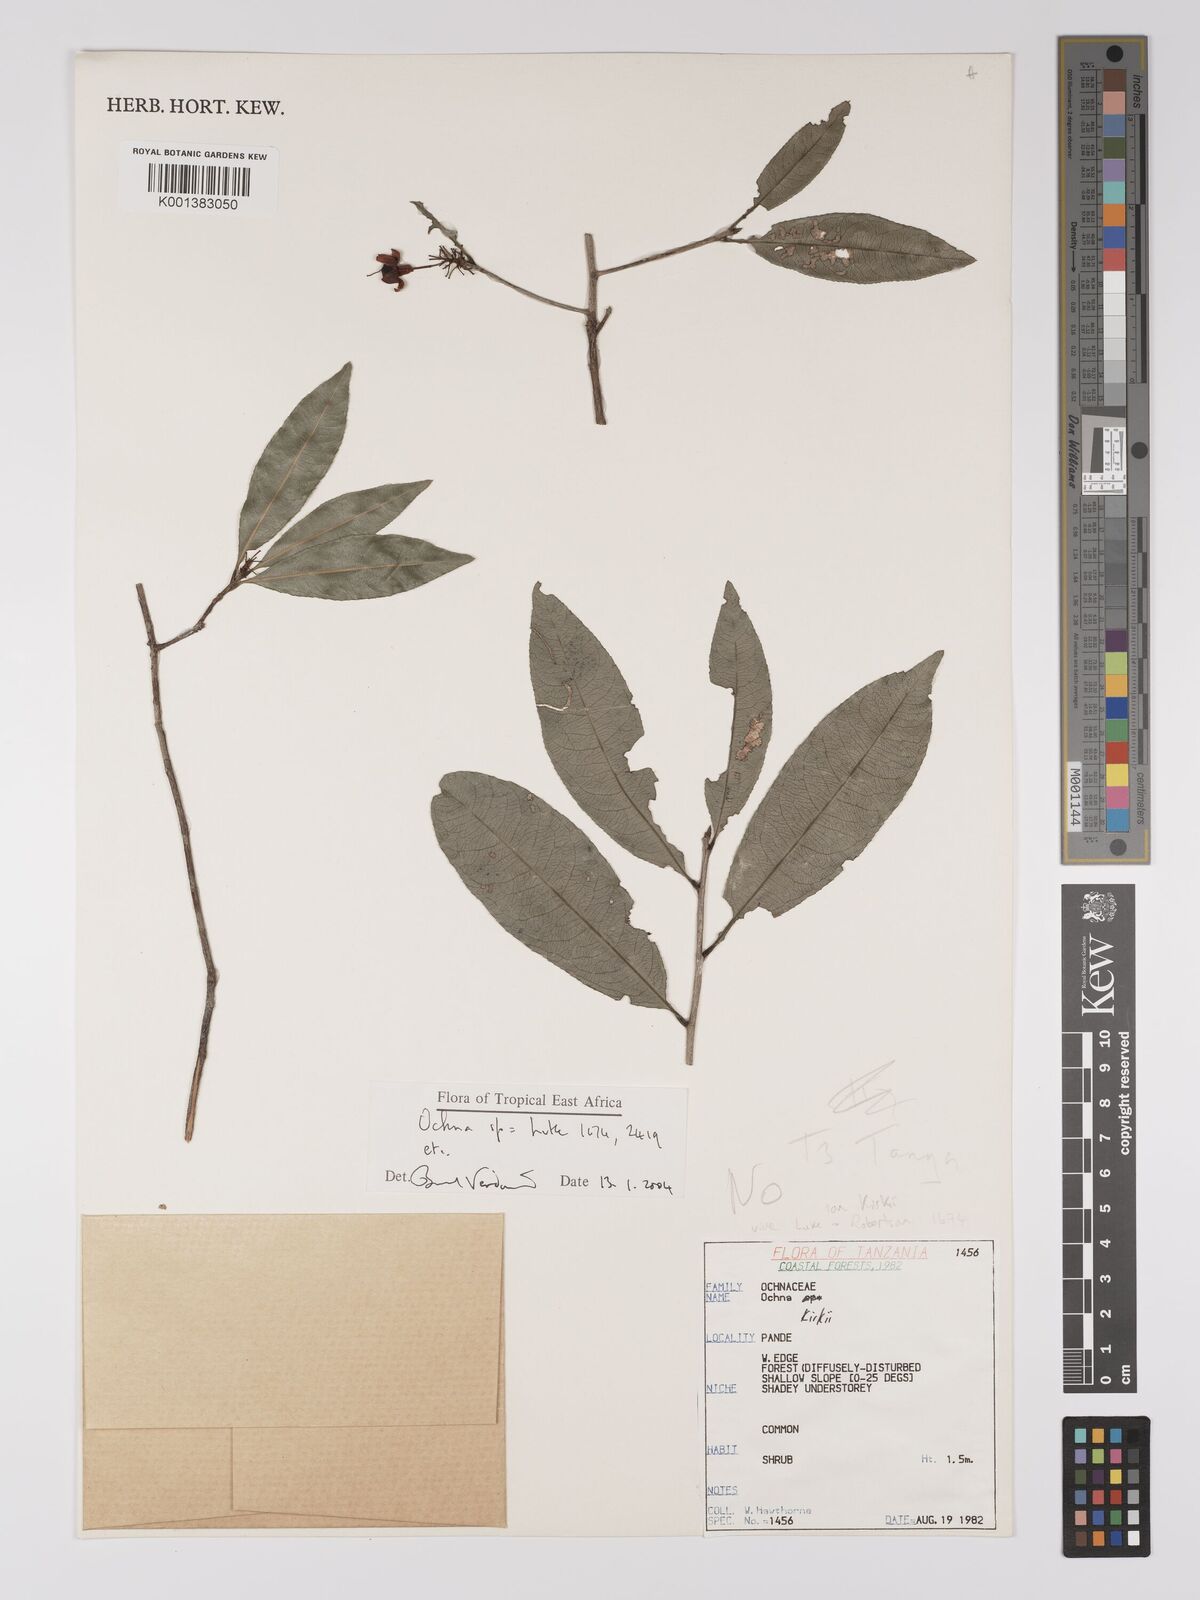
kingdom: Plantae
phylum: Tracheophyta
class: Magnoliopsida
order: Malpighiales
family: Ochnaceae
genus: Ochna
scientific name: Ochna apetala
